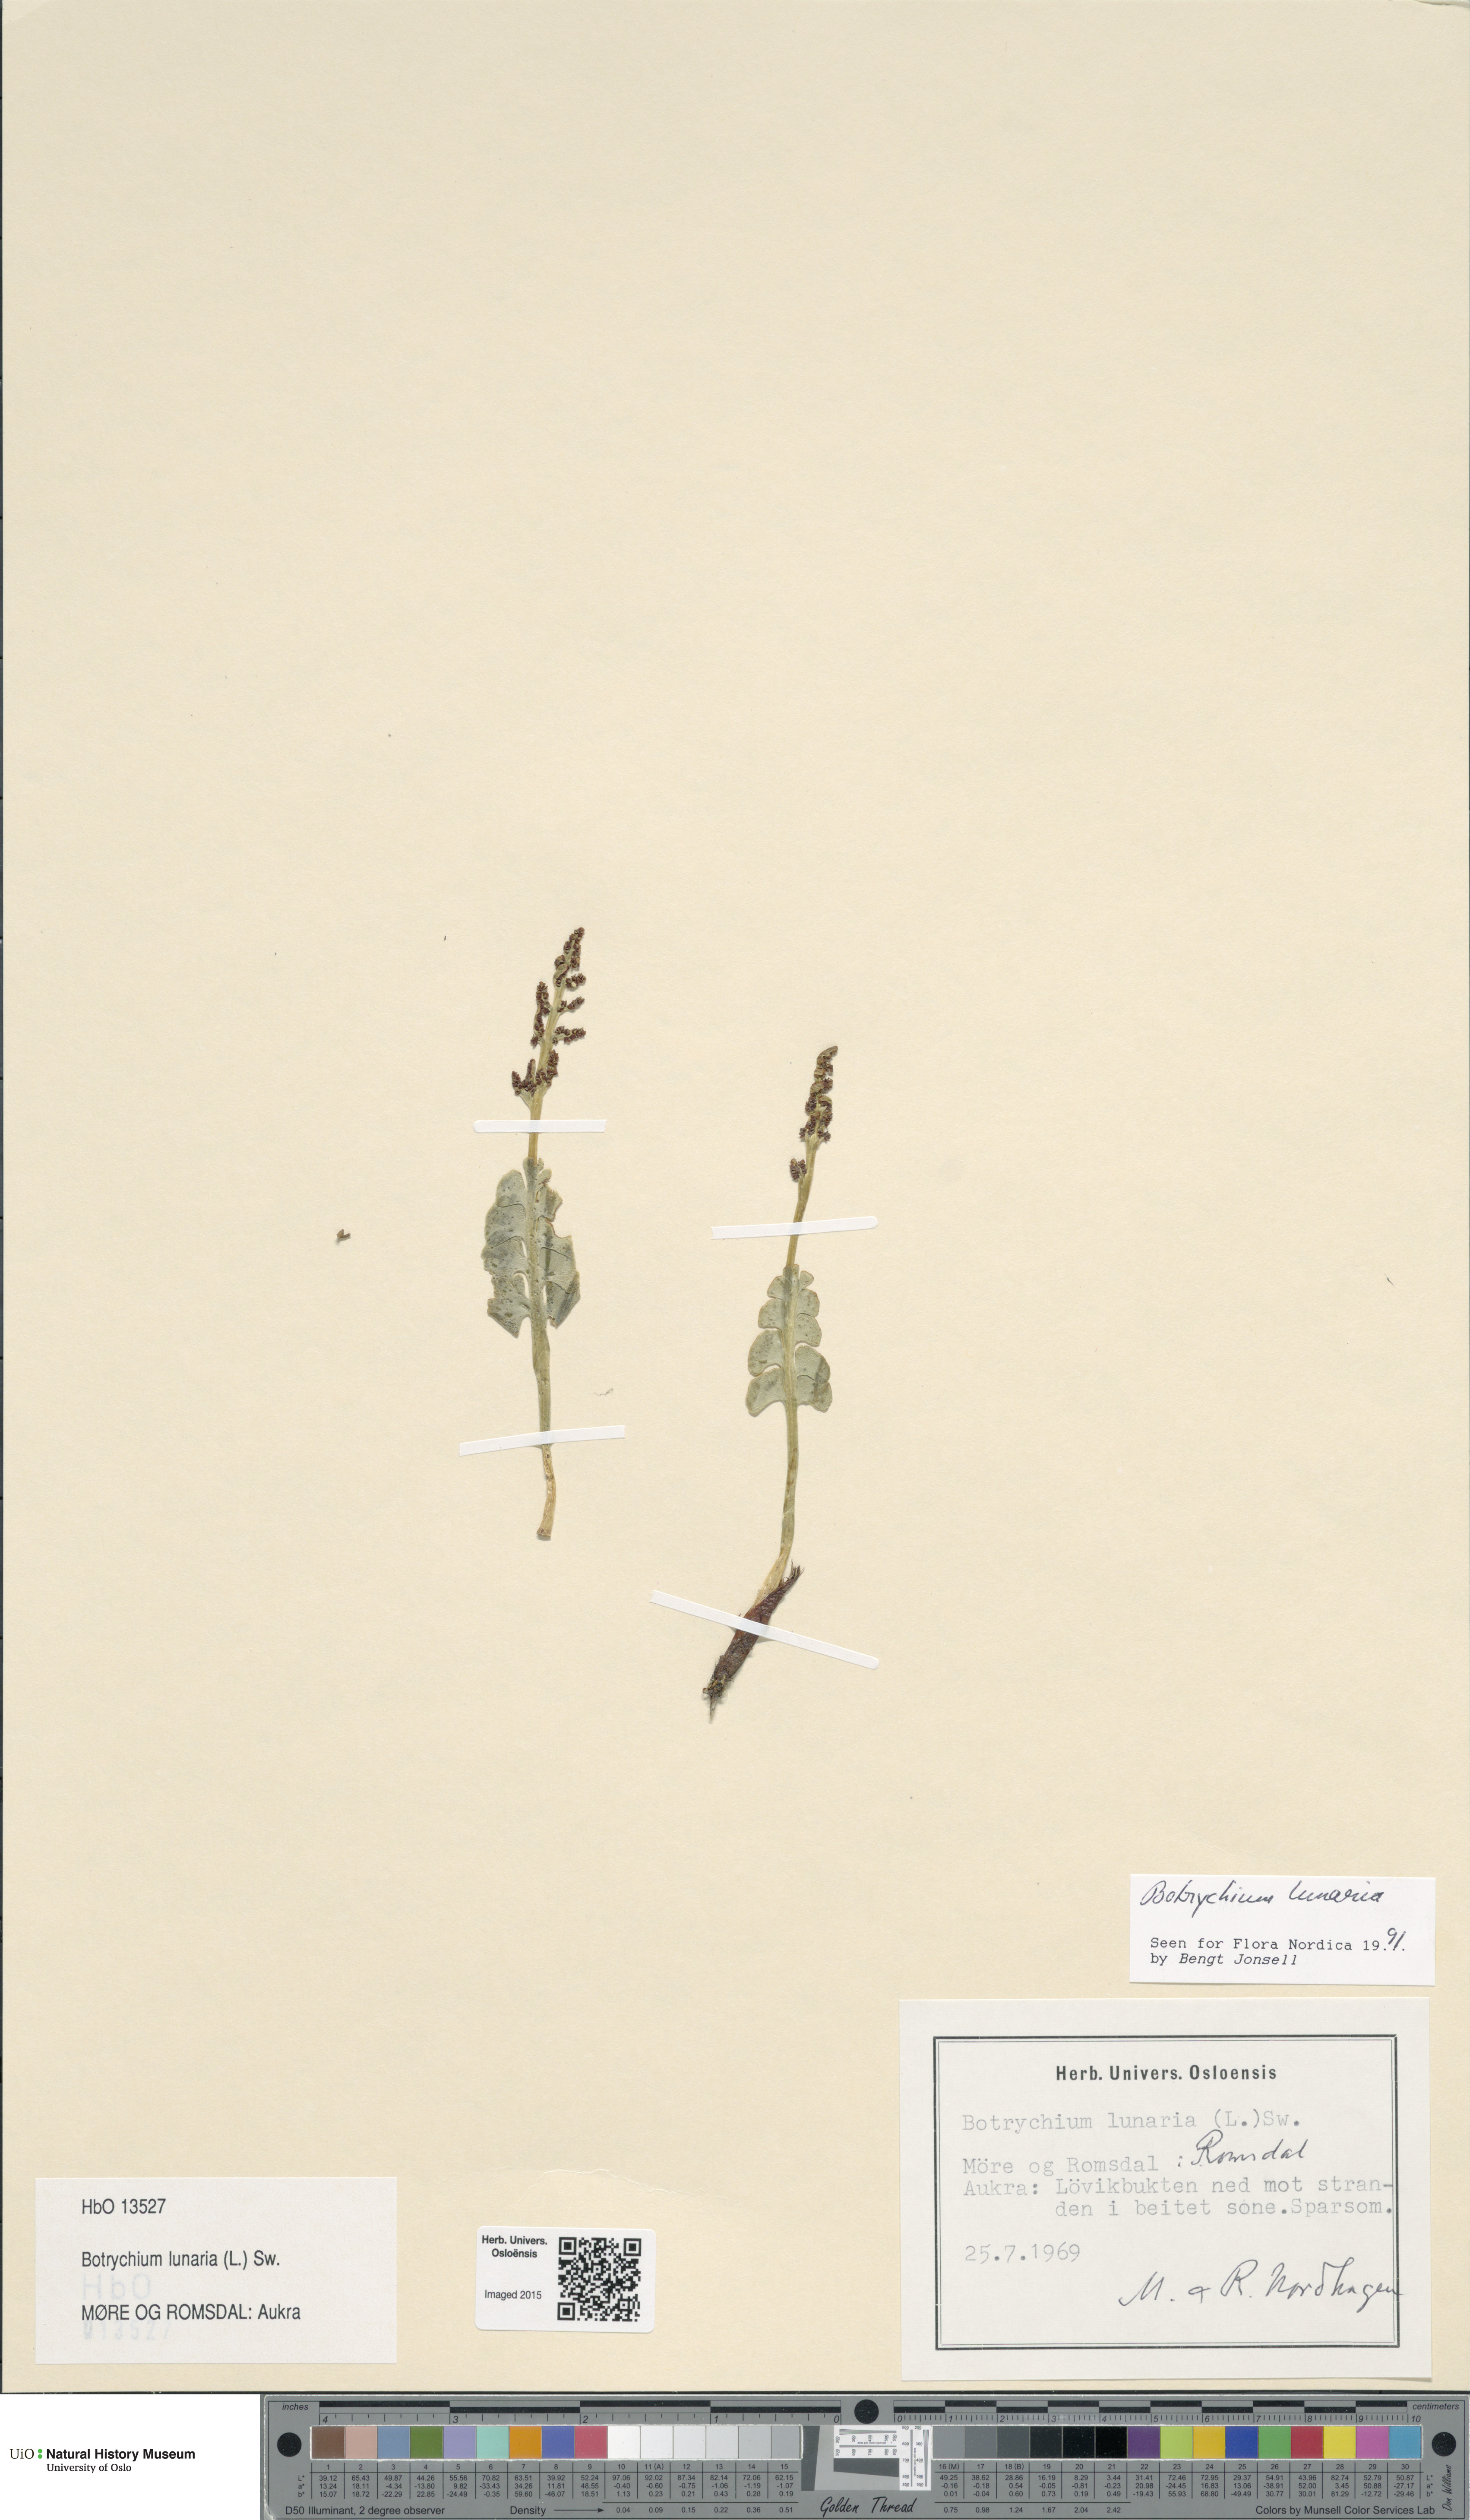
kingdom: Plantae
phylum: Tracheophyta
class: Polypodiopsida
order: Ophioglossales
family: Ophioglossaceae
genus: Botrychium
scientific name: Botrychium lunaria
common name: Moonwort
